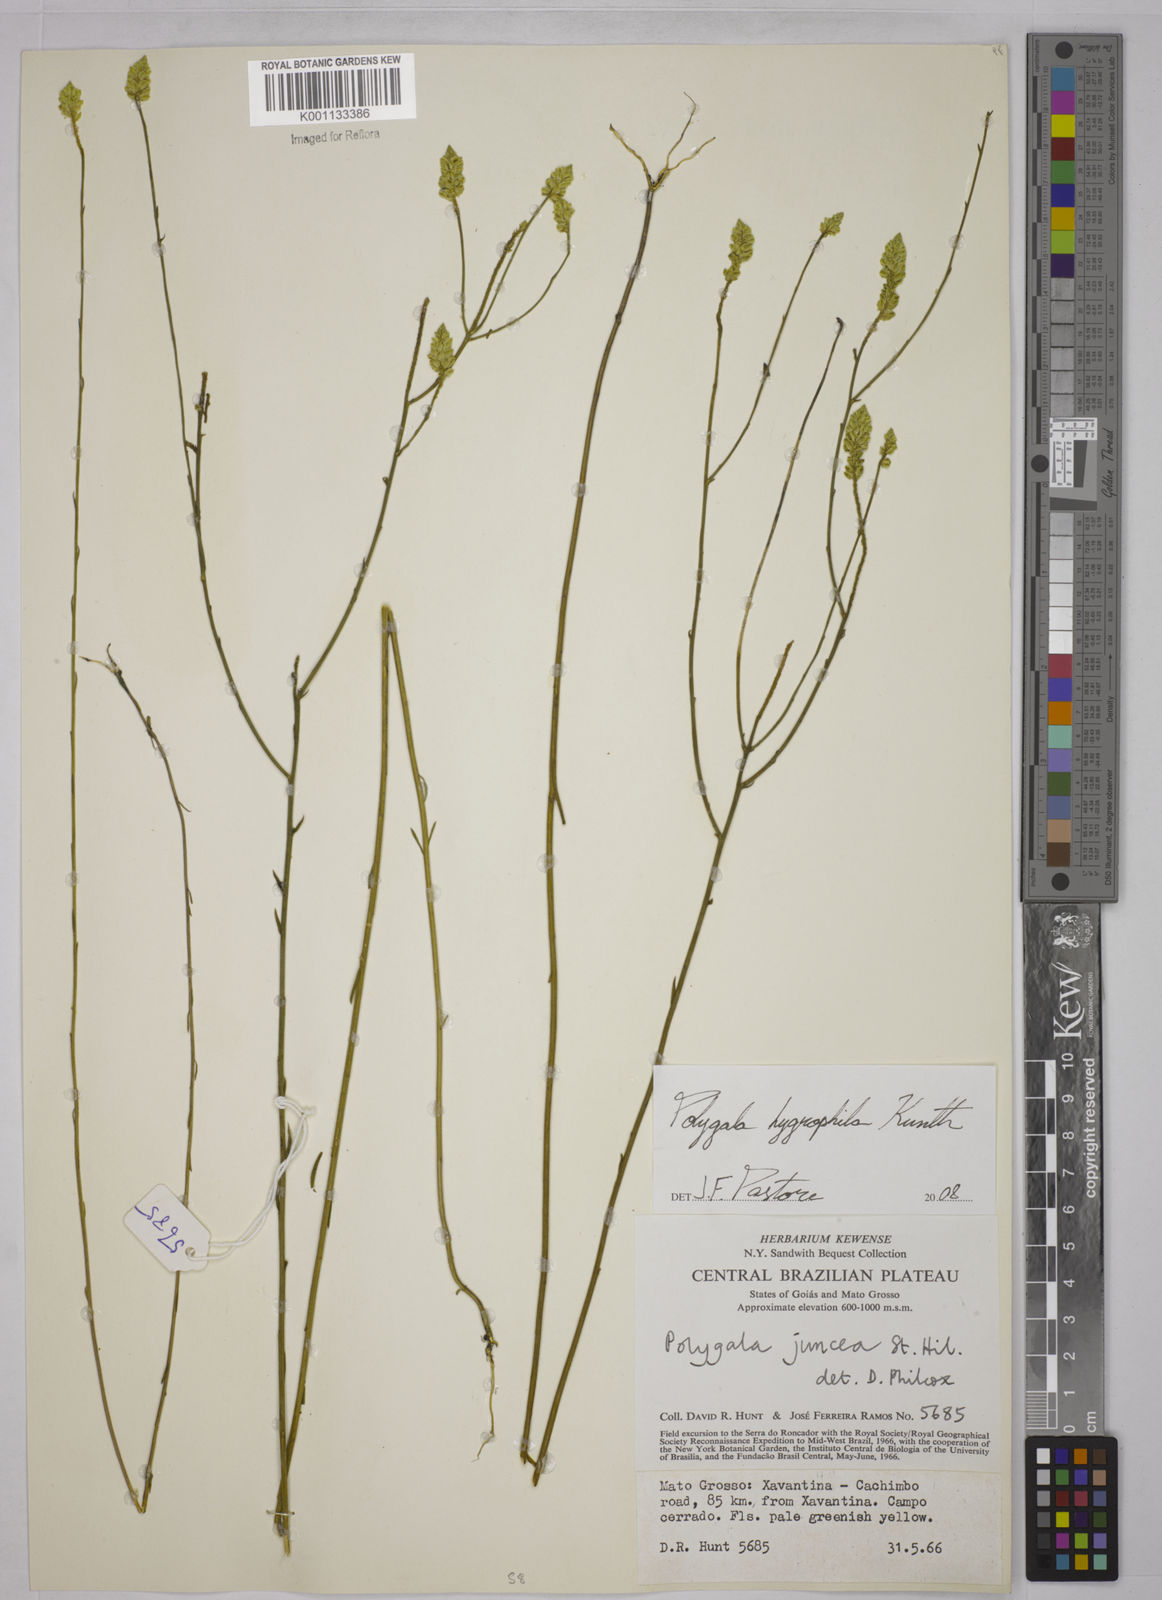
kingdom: Plantae
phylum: Tracheophyta
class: Magnoliopsida
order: Fabales
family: Polygalaceae
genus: Polygala
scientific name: Polygala hygrophila
